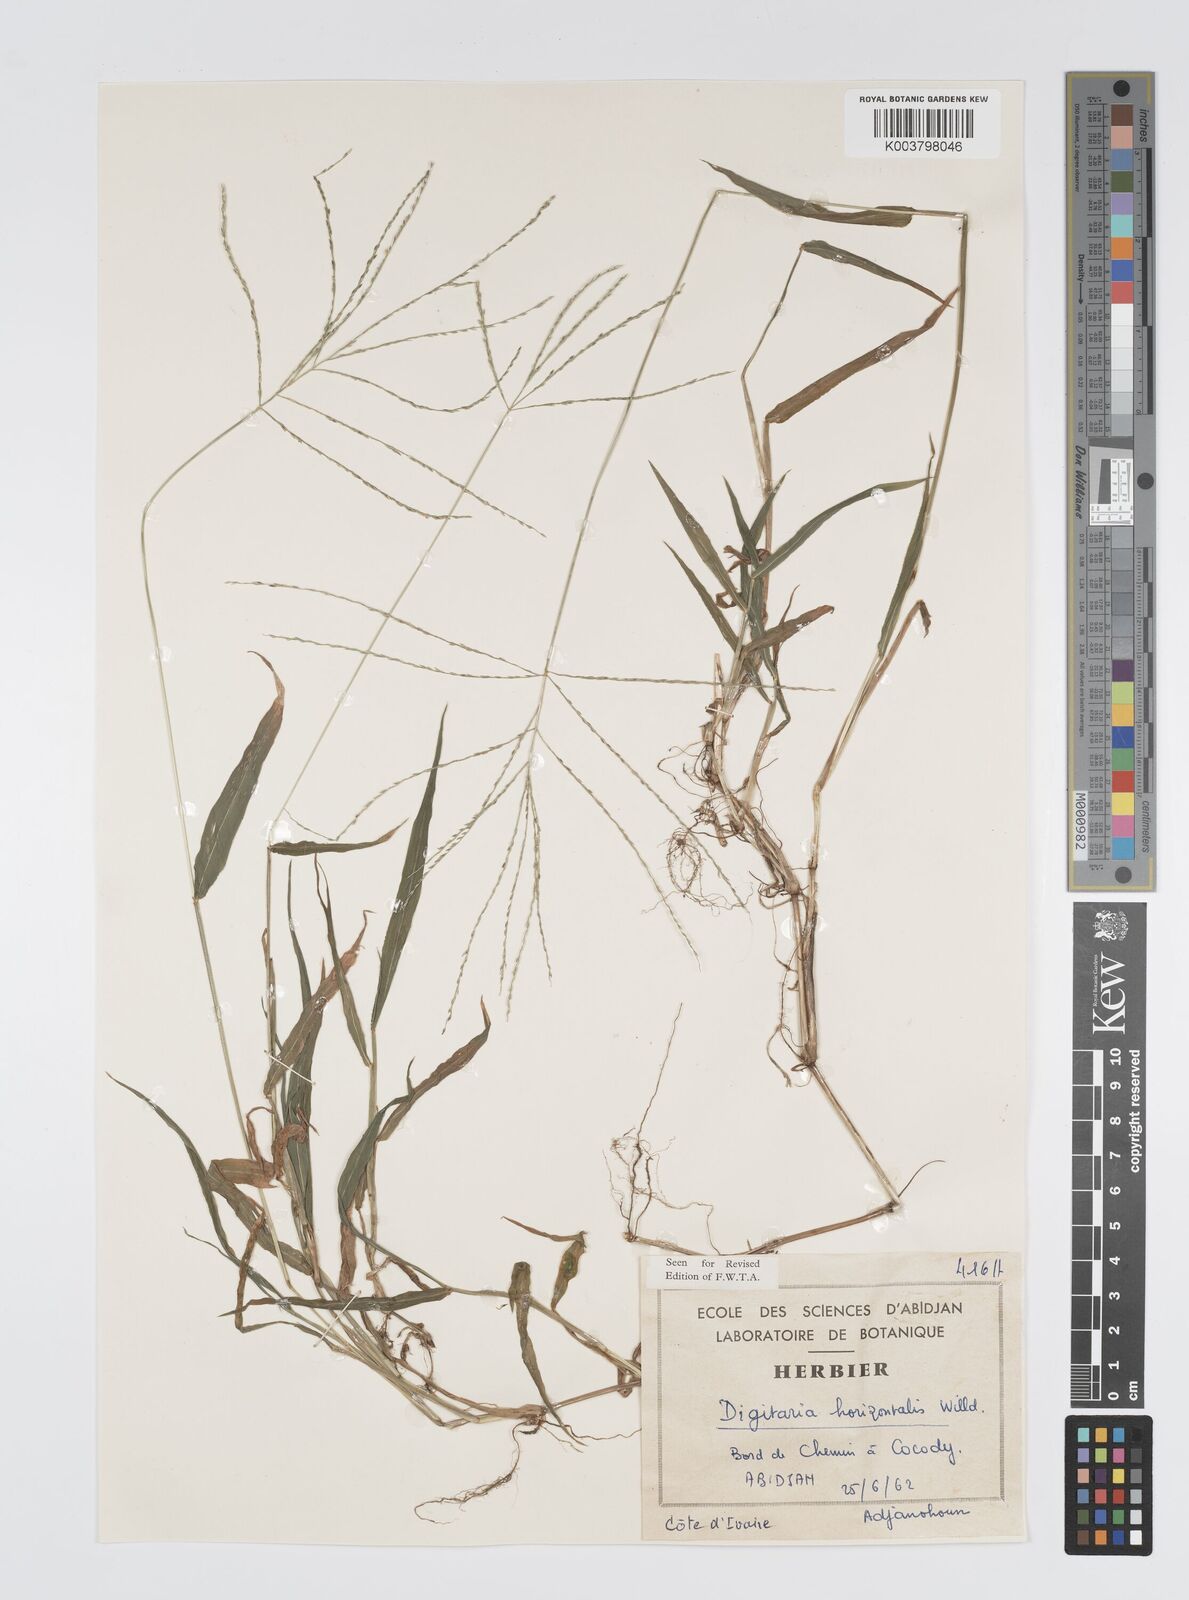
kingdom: Plantae
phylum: Tracheophyta
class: Liliopsida
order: Poales
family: Poaceae
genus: Digitaria
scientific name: Digitaria horizontalis
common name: Jamaican crabgrass
